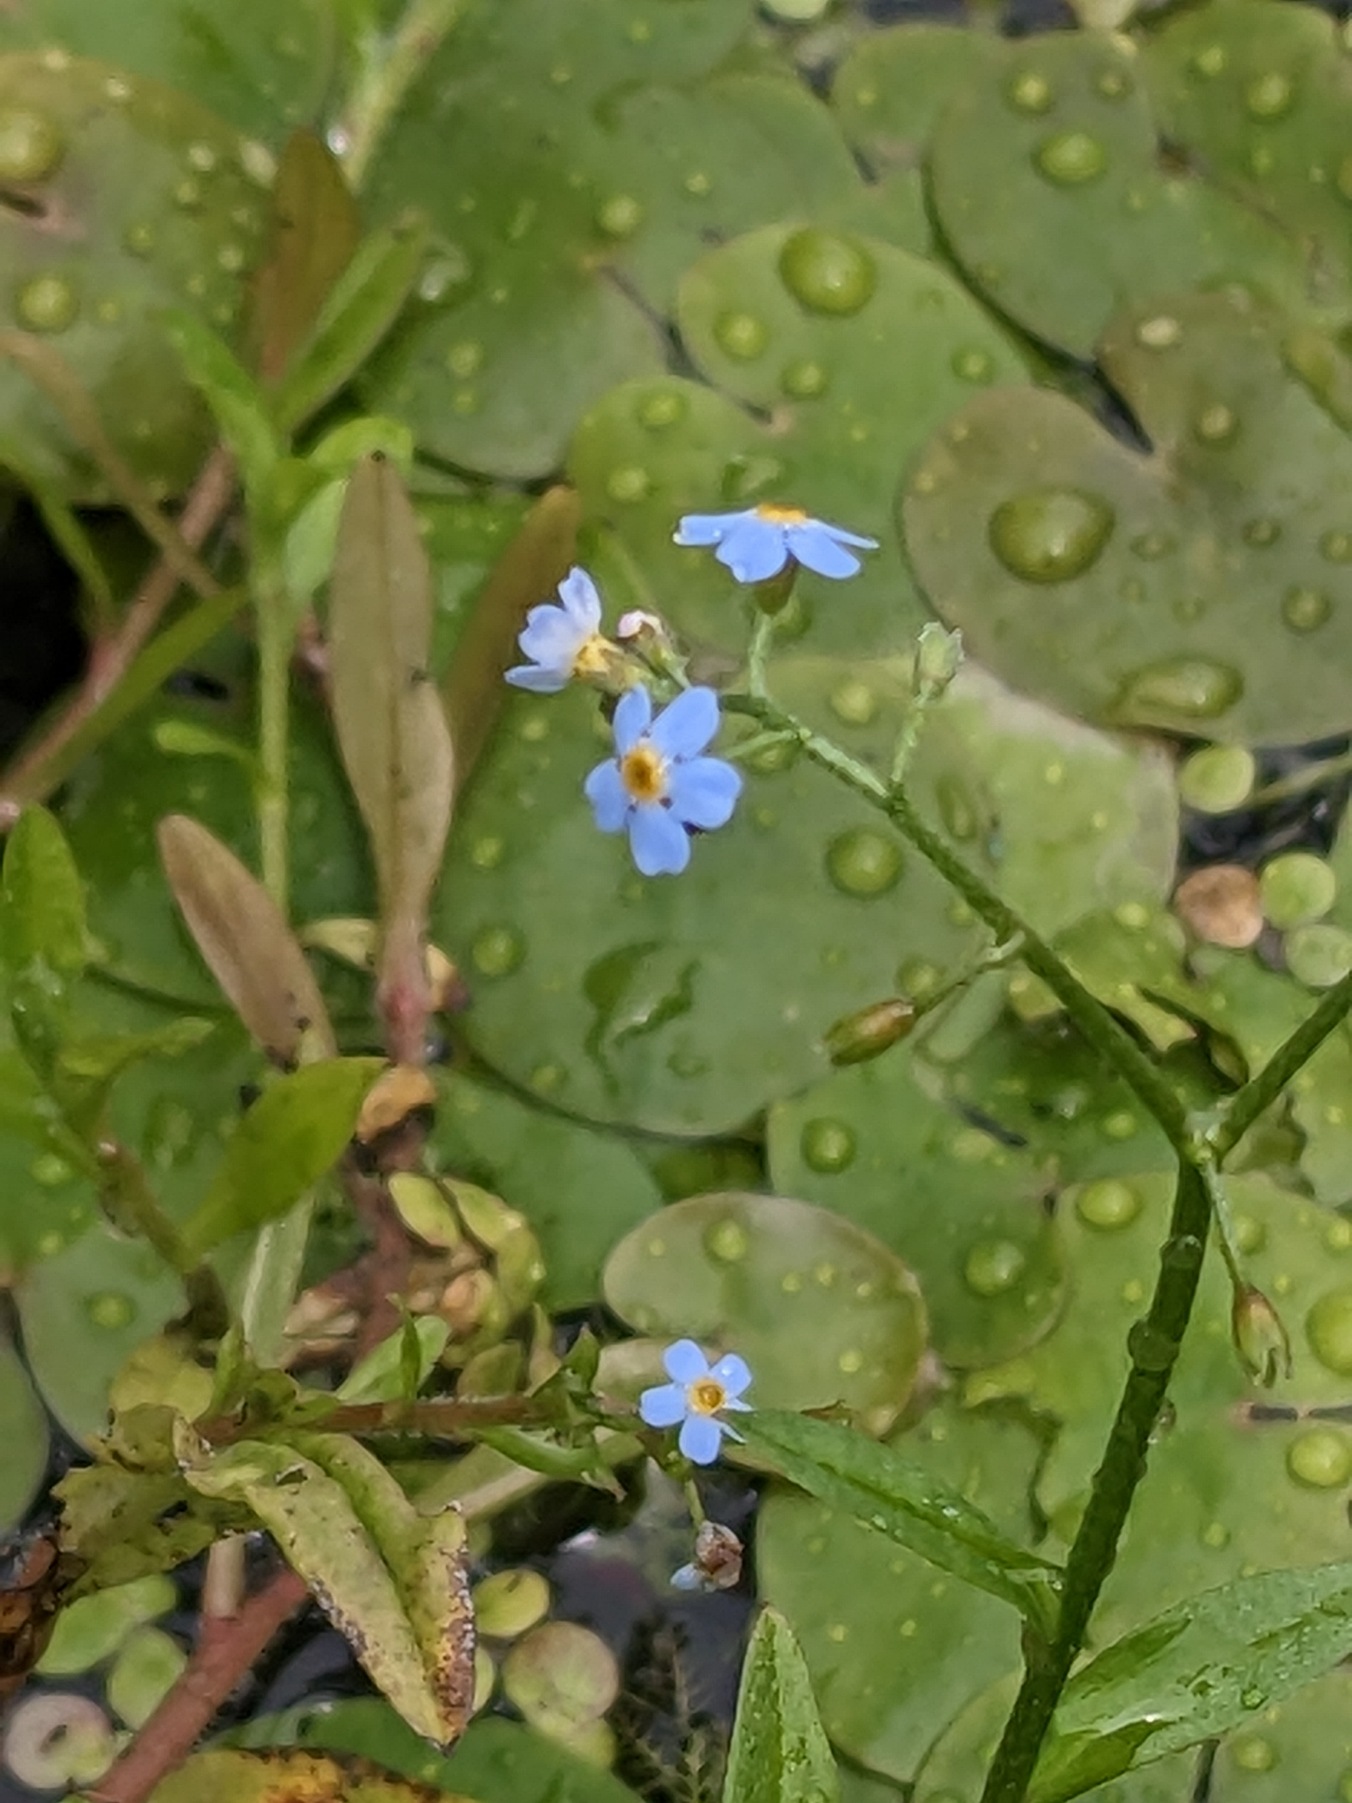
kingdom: Plantae
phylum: Tracheophyta
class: Magnoliopsida
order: Boraginales
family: Boraginaceae
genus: Myosotis
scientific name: Myosotis scorpioides
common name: Eng-forglemmigej
